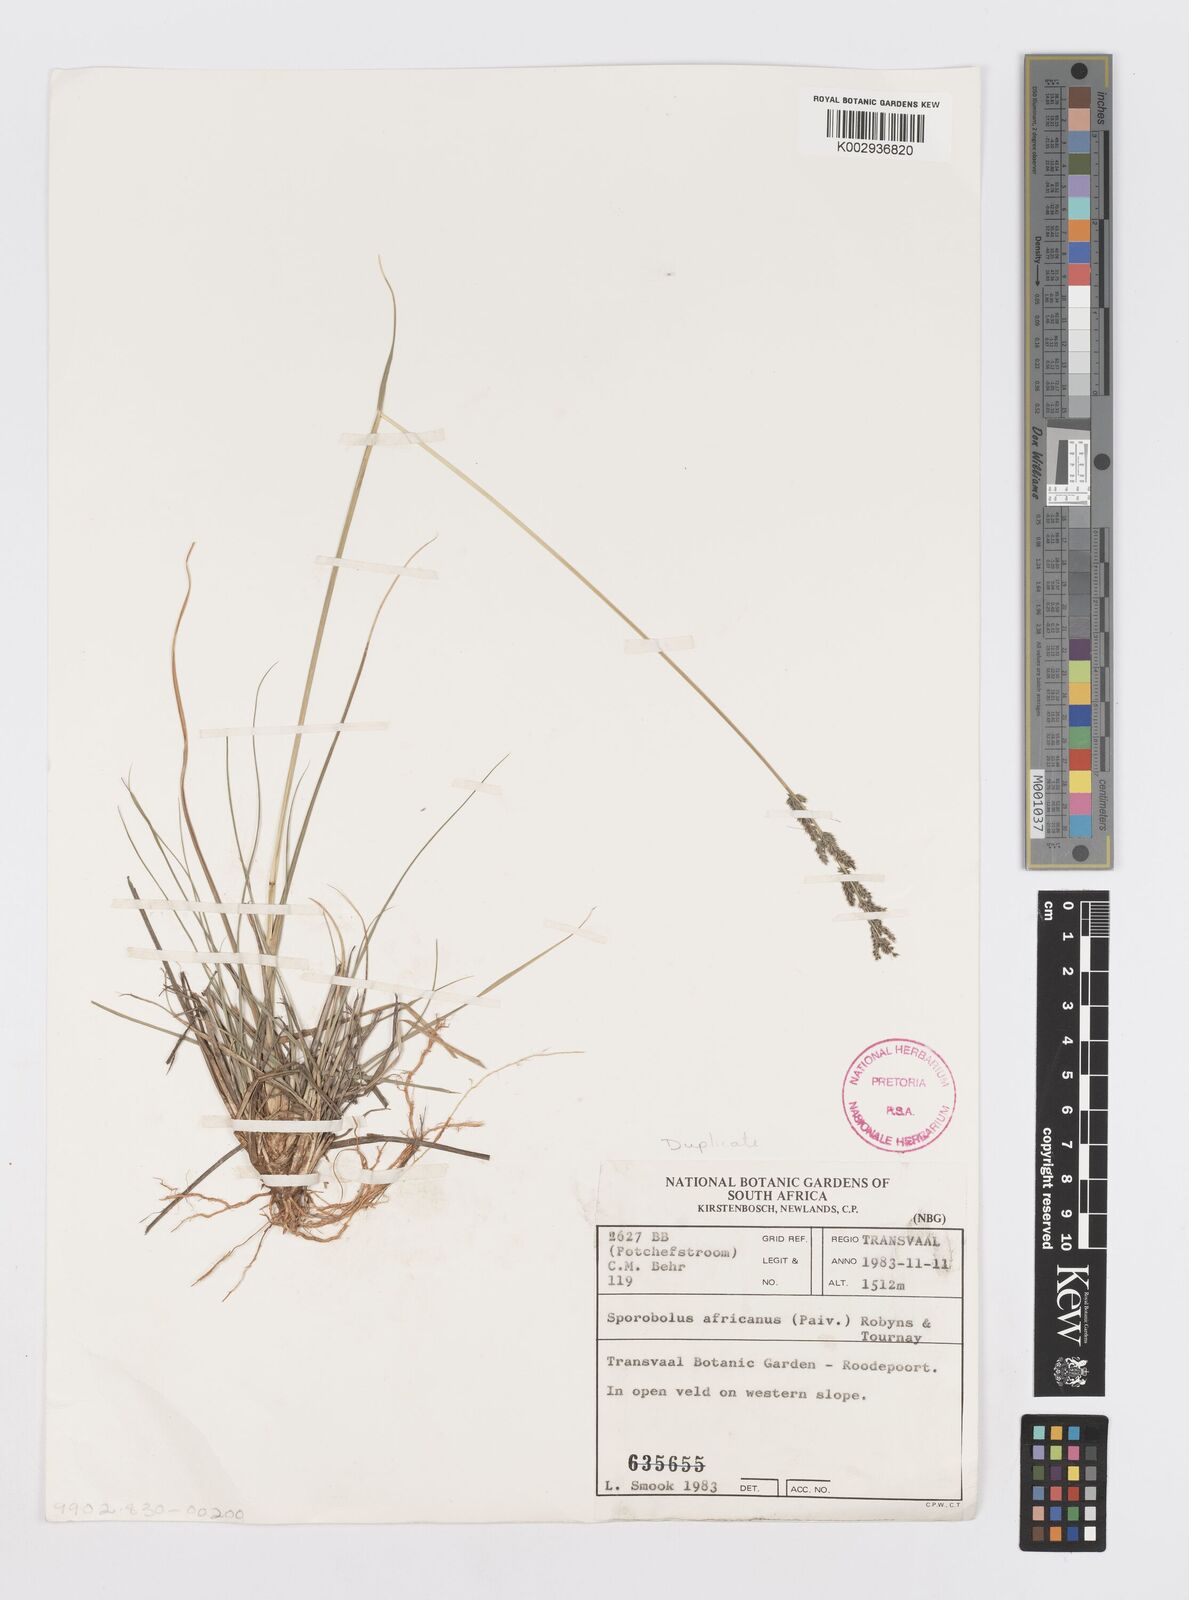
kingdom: Plantae
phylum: Tracheophyta
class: Liliopsida
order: Poales
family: Poaceae
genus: Sporobolus
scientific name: Sporobolus africanus
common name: African dropseed
